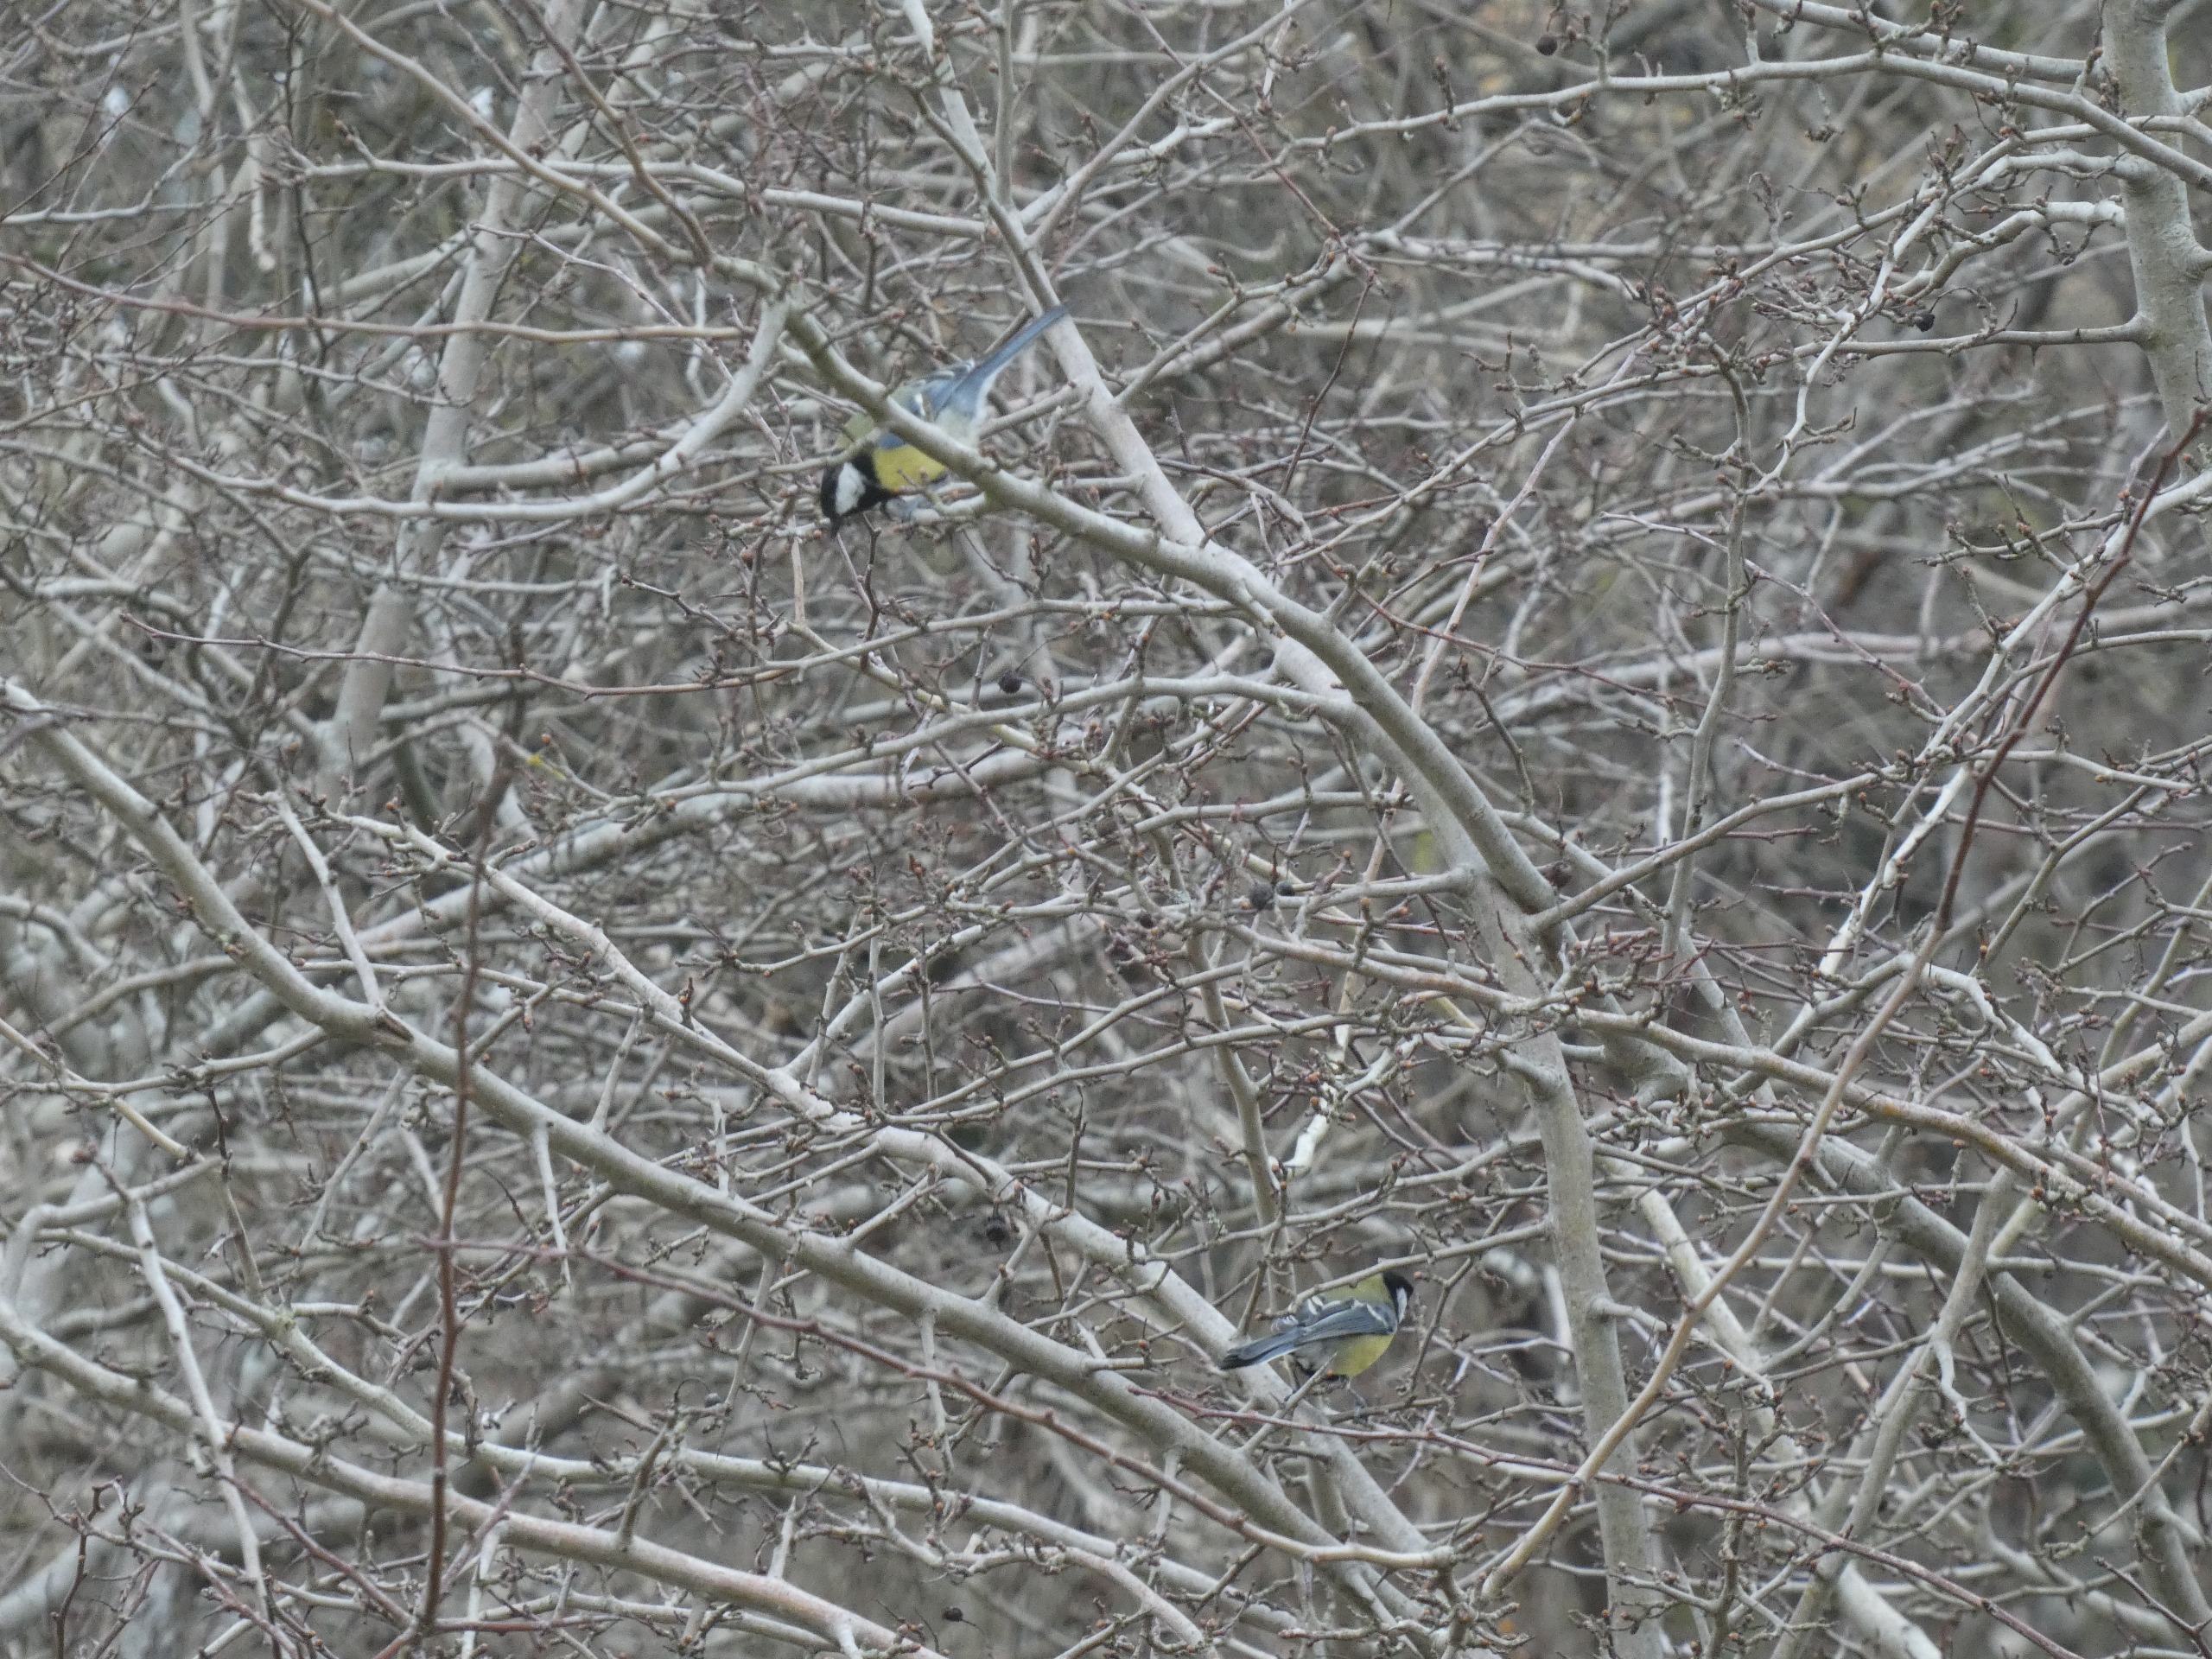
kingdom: Animalia
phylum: Chordata
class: Aves
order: Passeriformes
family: Paridae
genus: Parus
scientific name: Parus major
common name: Musvit
